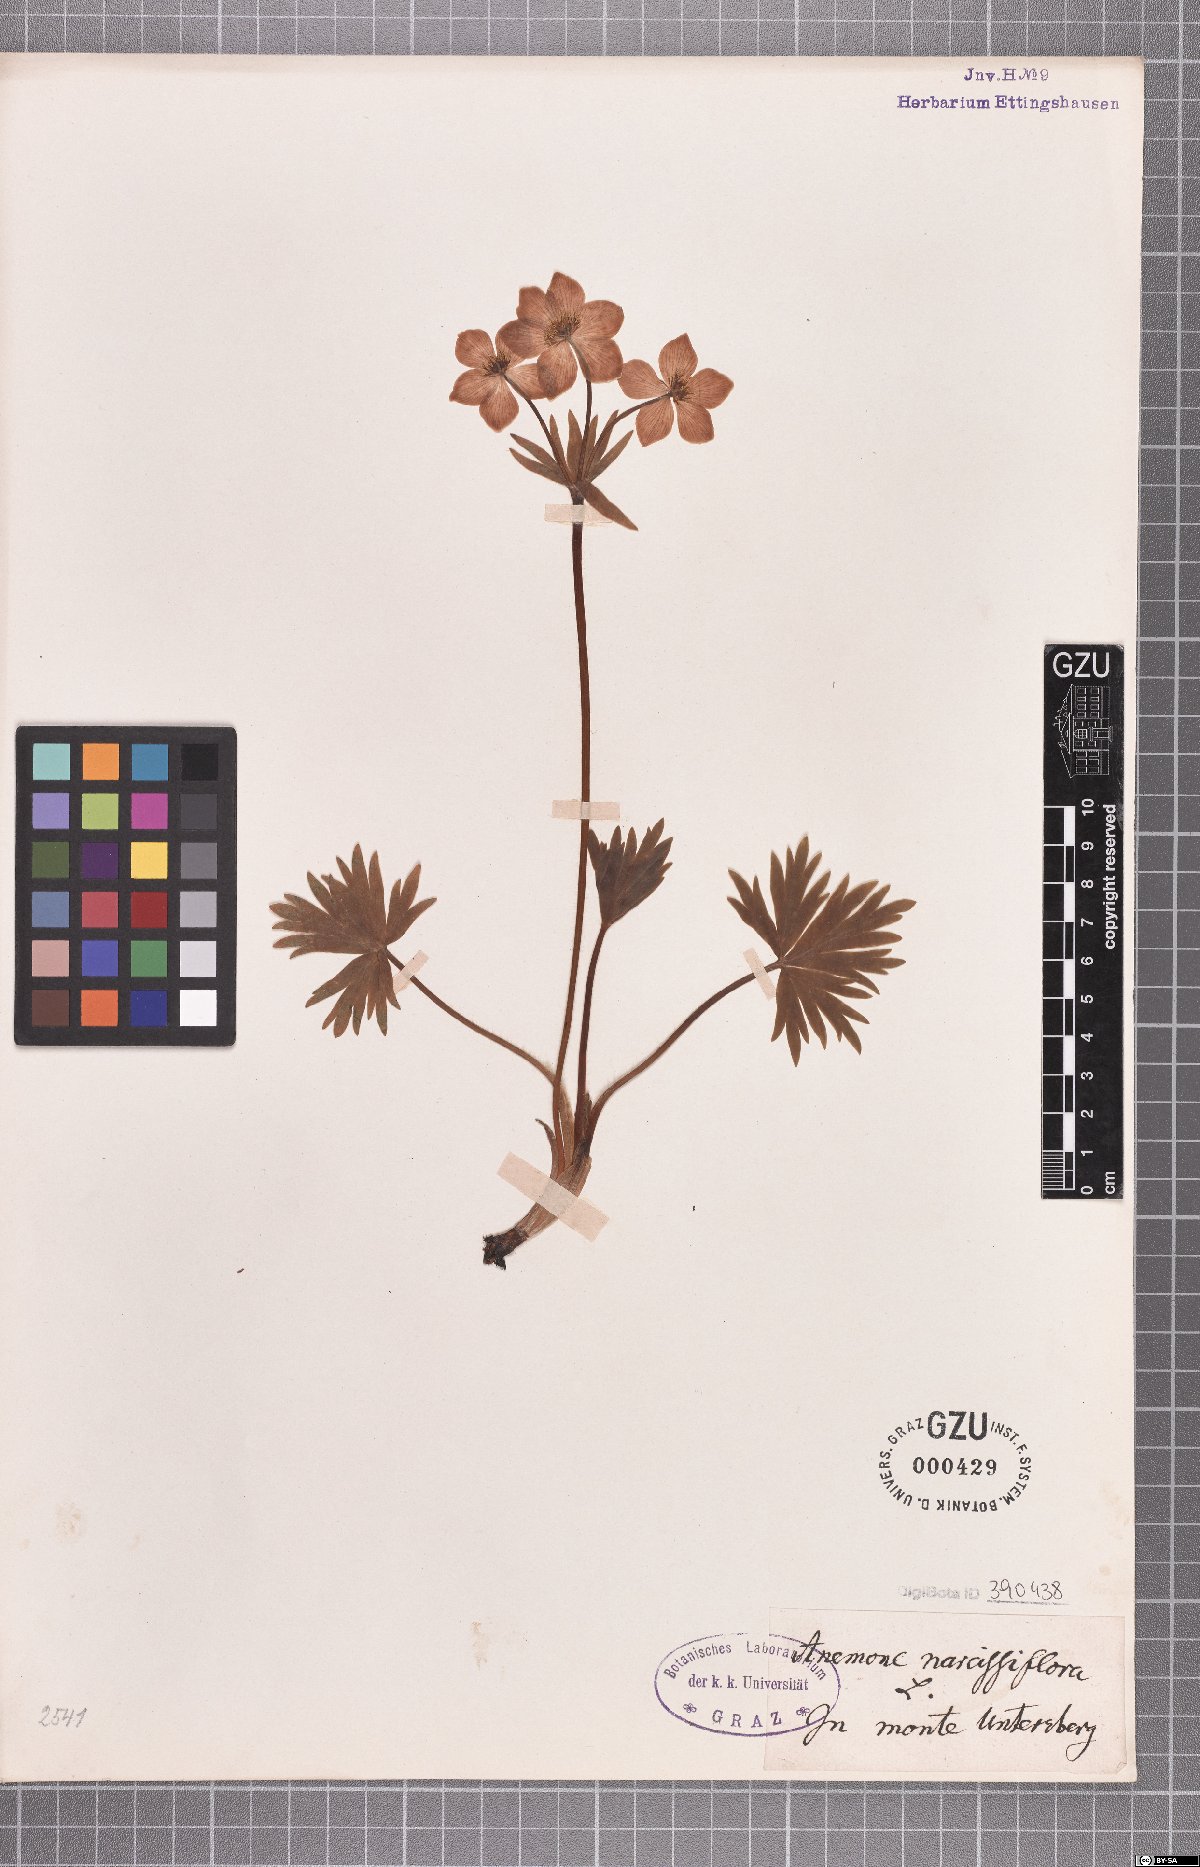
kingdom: Plantae
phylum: Tracheophyta
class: Magnoliopsida
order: Ranunculales
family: Ranunculaceae
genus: Anemonastrum
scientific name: Anemonastrum narcissiflorum
